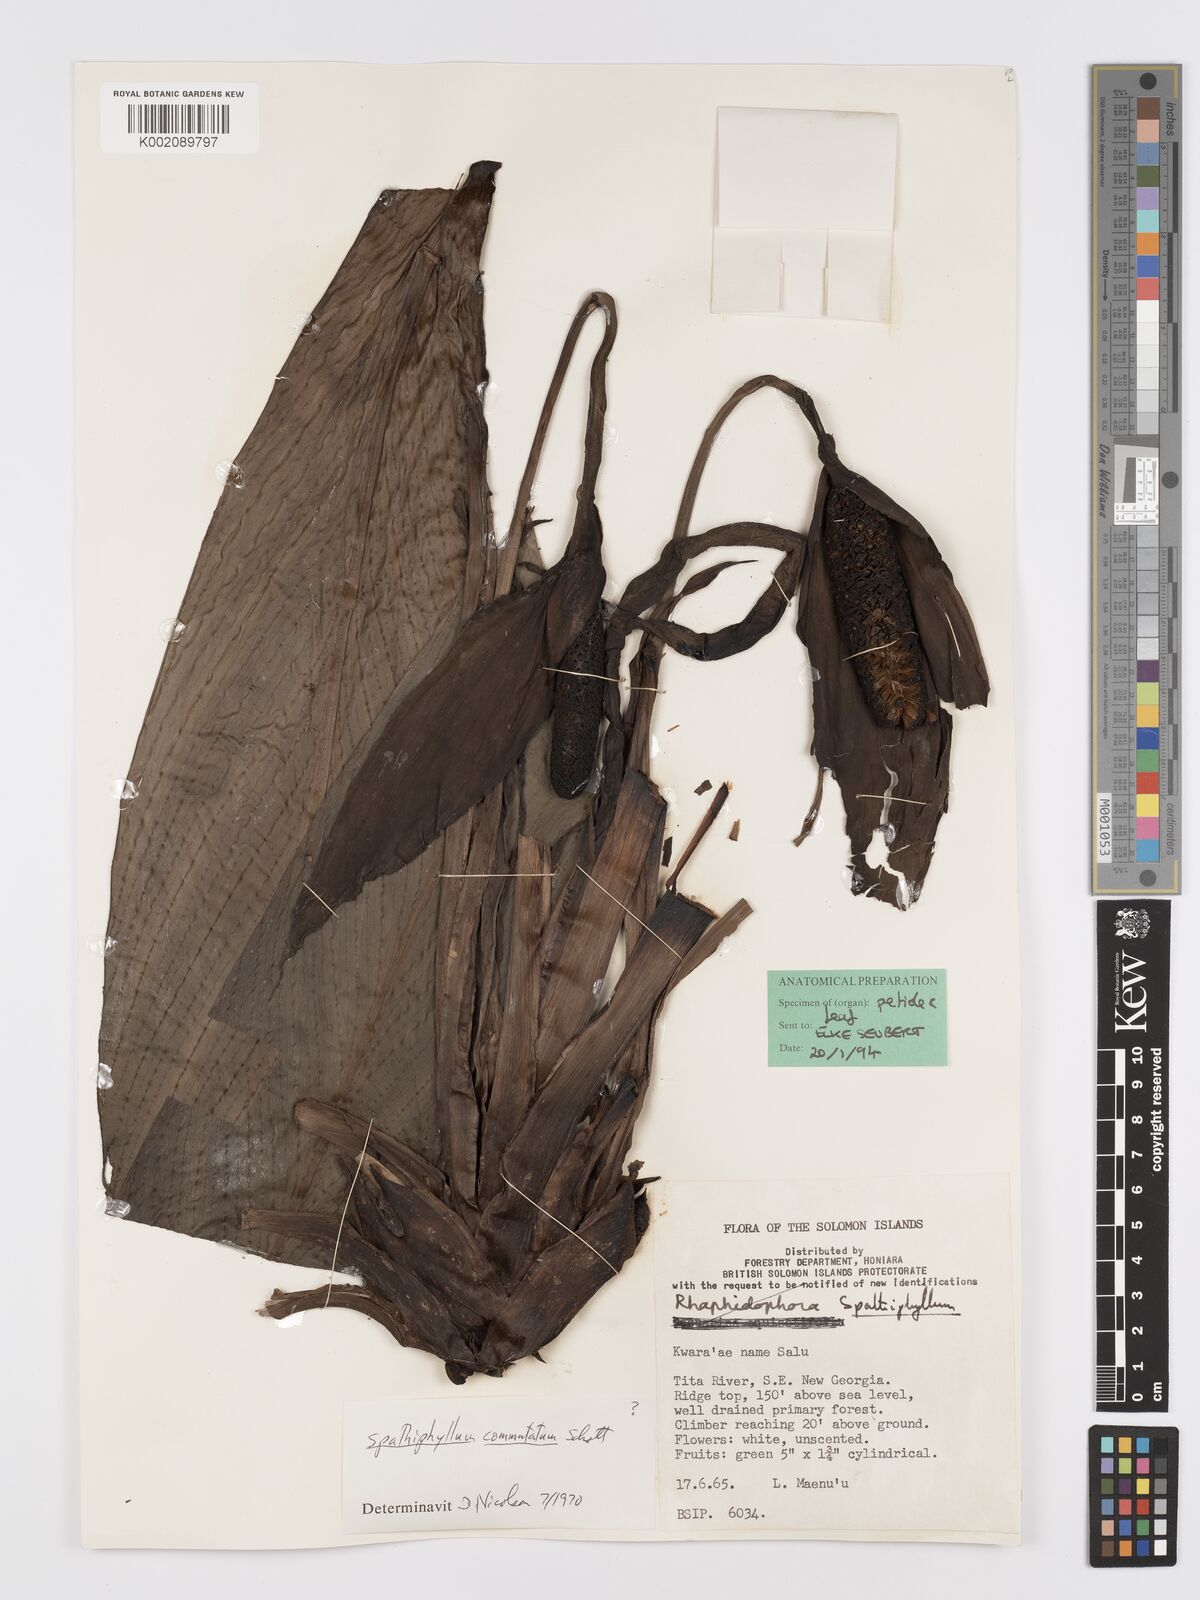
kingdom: Plantae
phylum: Tracheophyta
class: Liliopsida
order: Alismatales
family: Araceae
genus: Spathiphyllum
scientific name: Spathiphyllum solomonense
